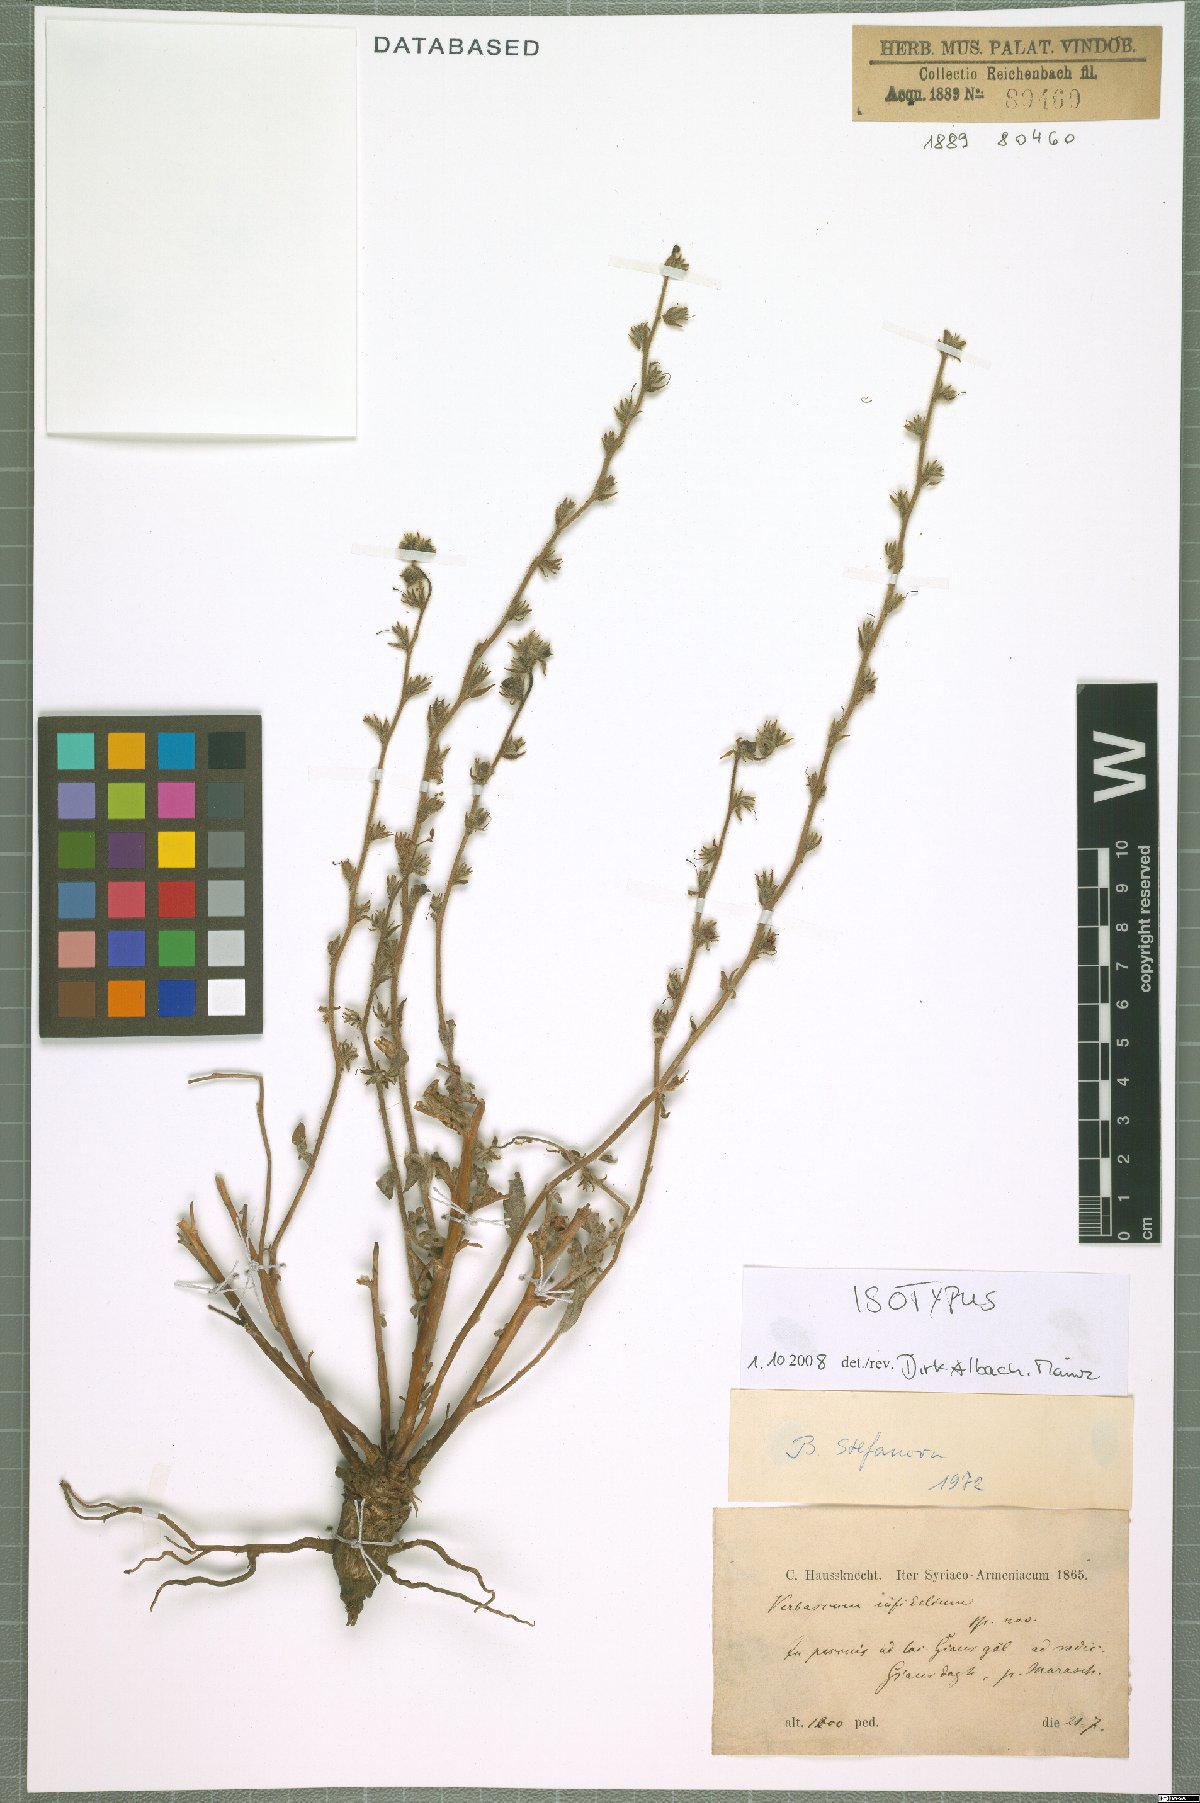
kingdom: Plantae
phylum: Tracheophyta
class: Magnoliopsida
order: Lamiales
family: Scrophulariaceae
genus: Verbascum
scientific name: Verbascum infidelium
